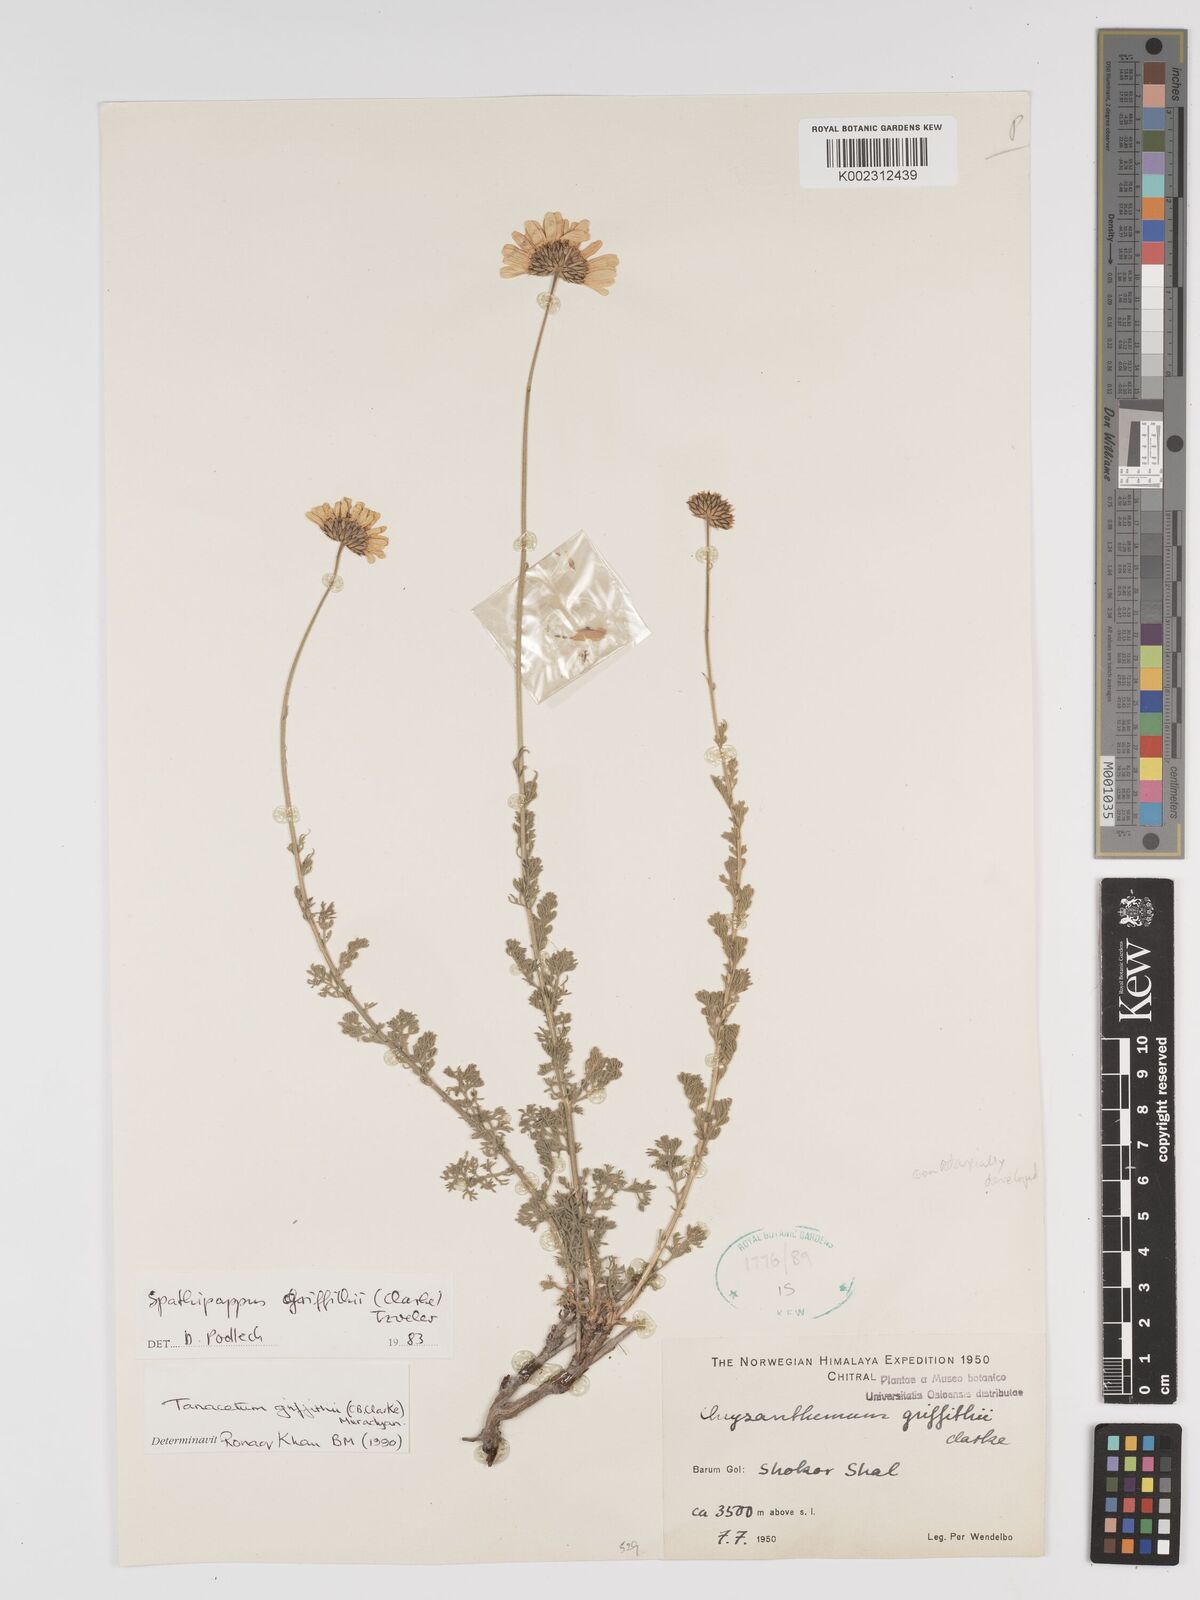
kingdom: Plantae
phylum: Tracheophyta
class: Magnoliopsida
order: Asterales
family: Asteraceae
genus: Tanacetum
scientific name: Tanacetum griffithii
